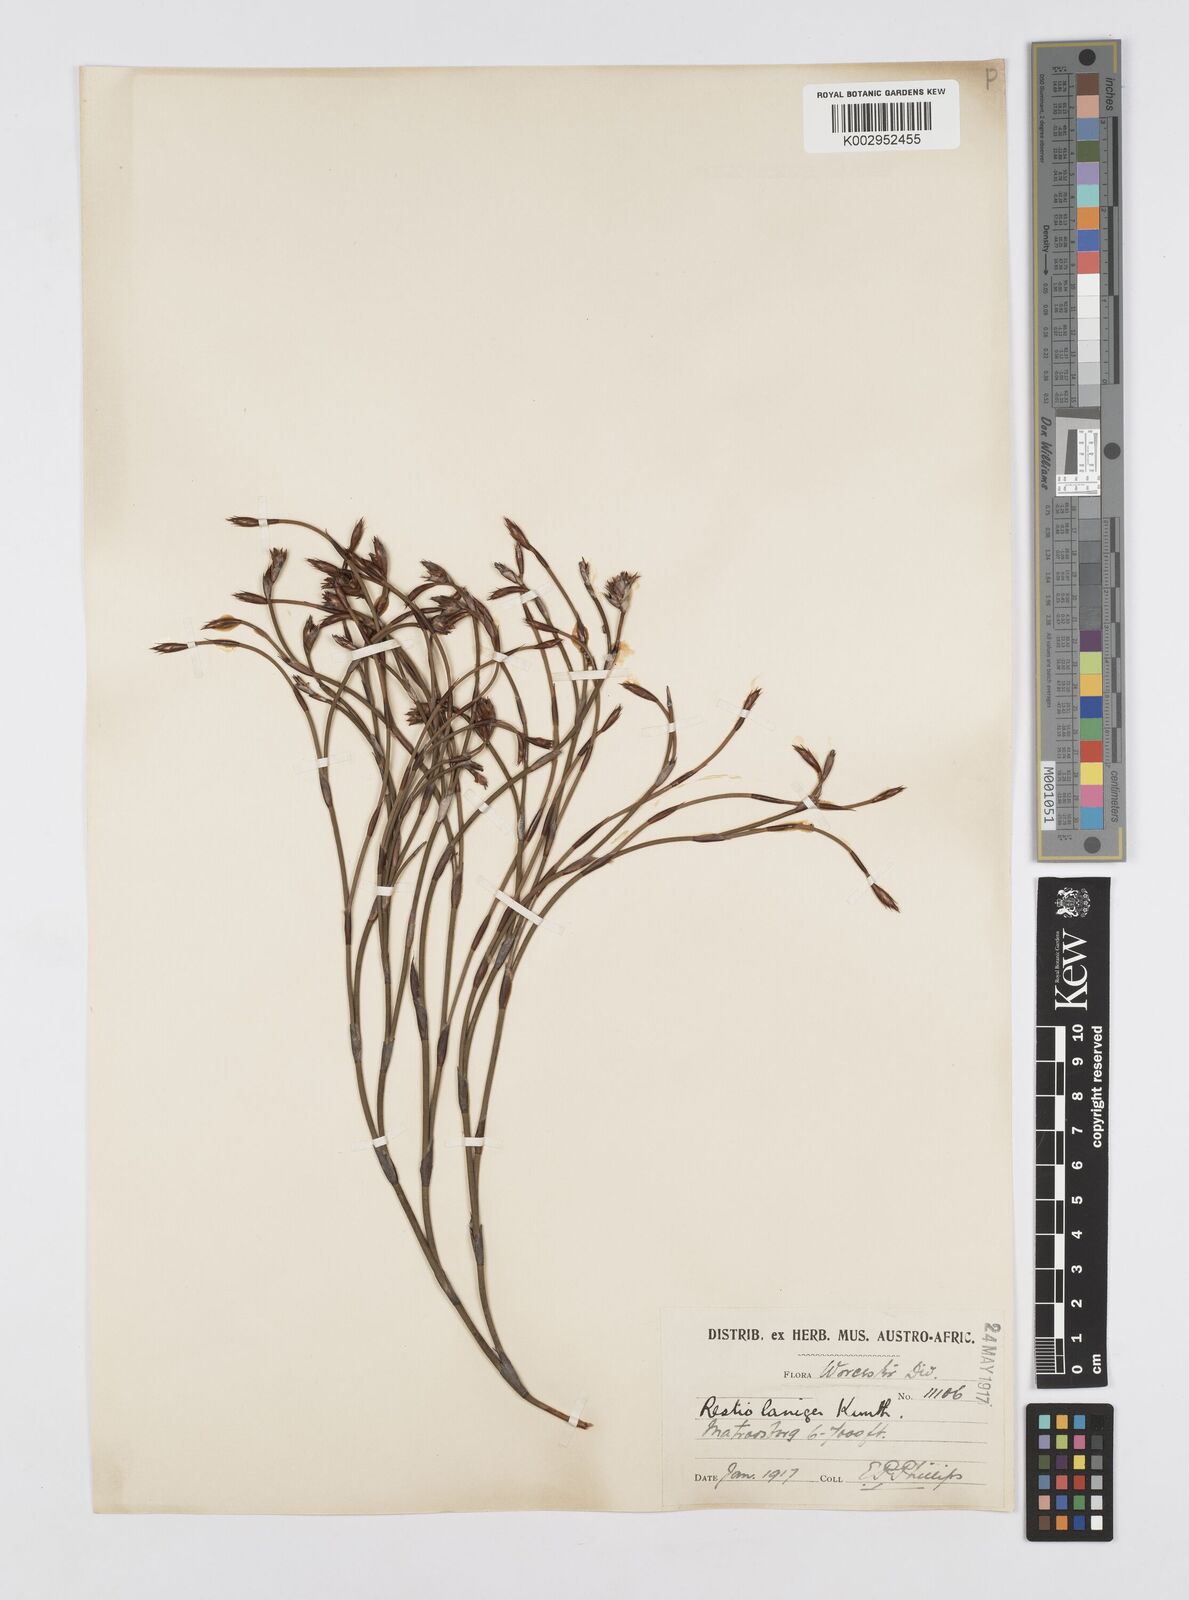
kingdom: Plantae
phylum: Tracheophyta
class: Liliopsida
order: Poales
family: Restionaceae
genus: Restio
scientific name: Restio distractus
